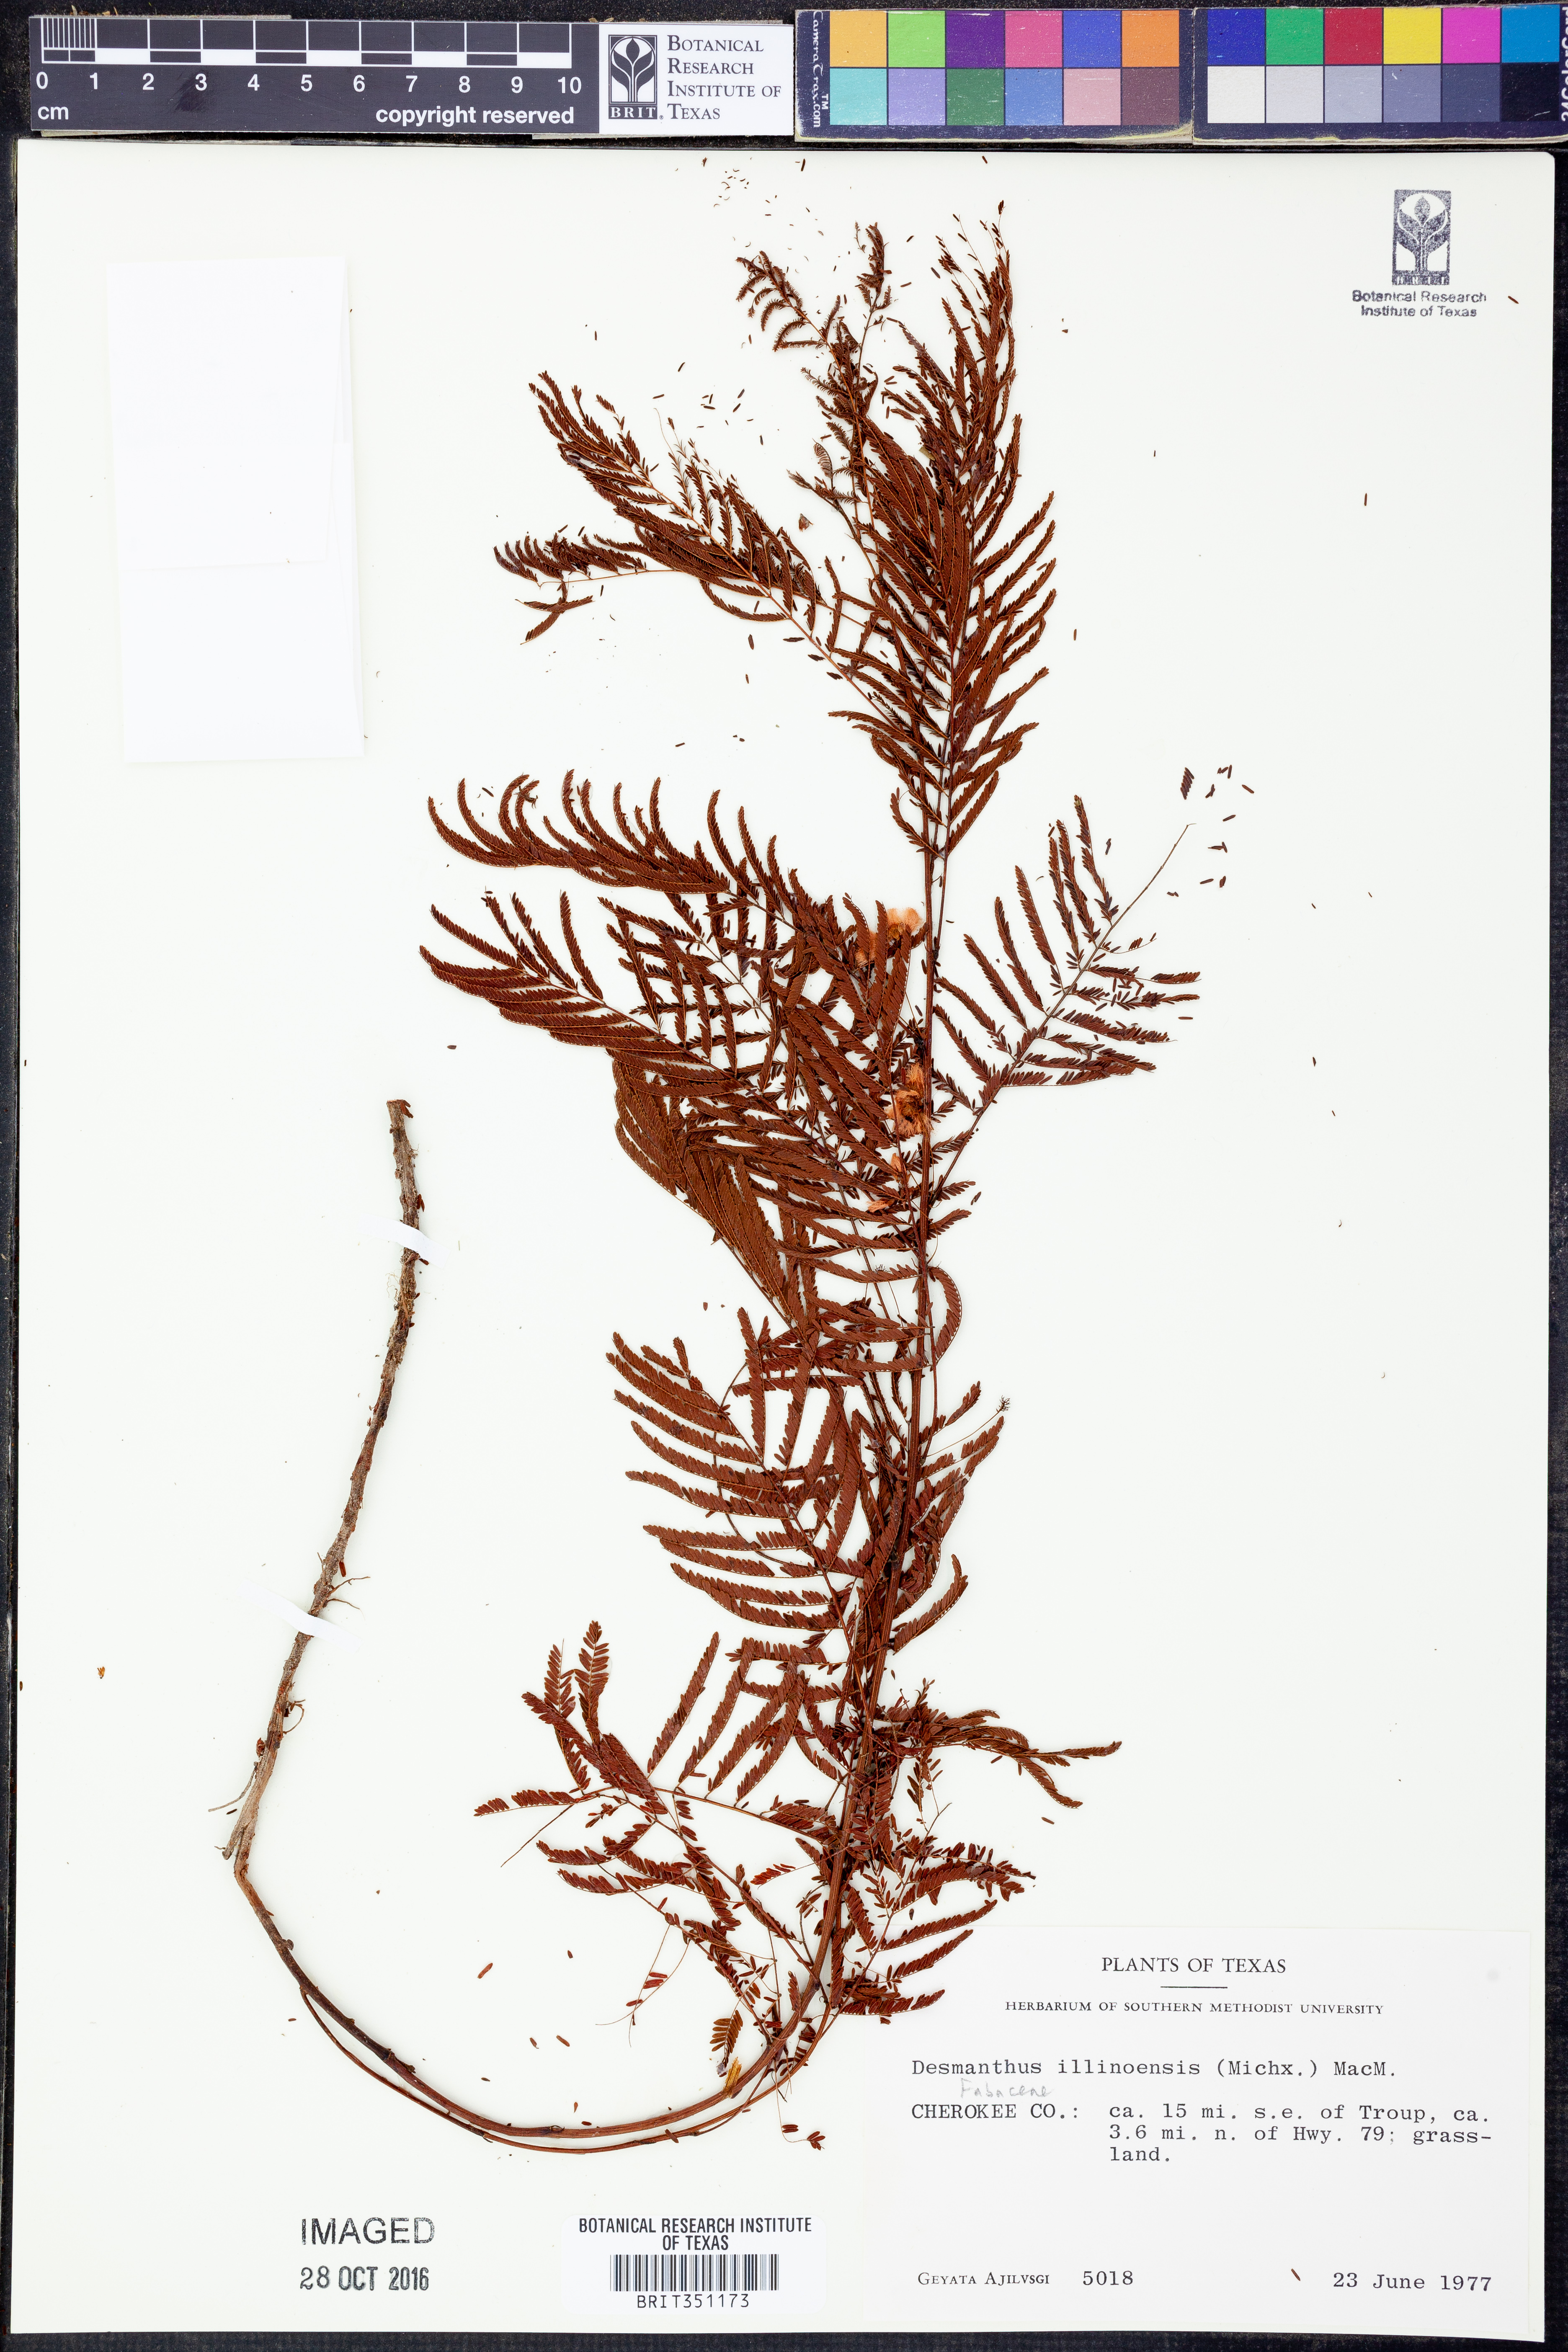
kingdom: Plantae
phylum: Tracheophyta
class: Magnoliopsida
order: Fabales
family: Fabaceae
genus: Desmanthus
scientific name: Desmanthus illinoensis
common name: Illinois bundle-flower
